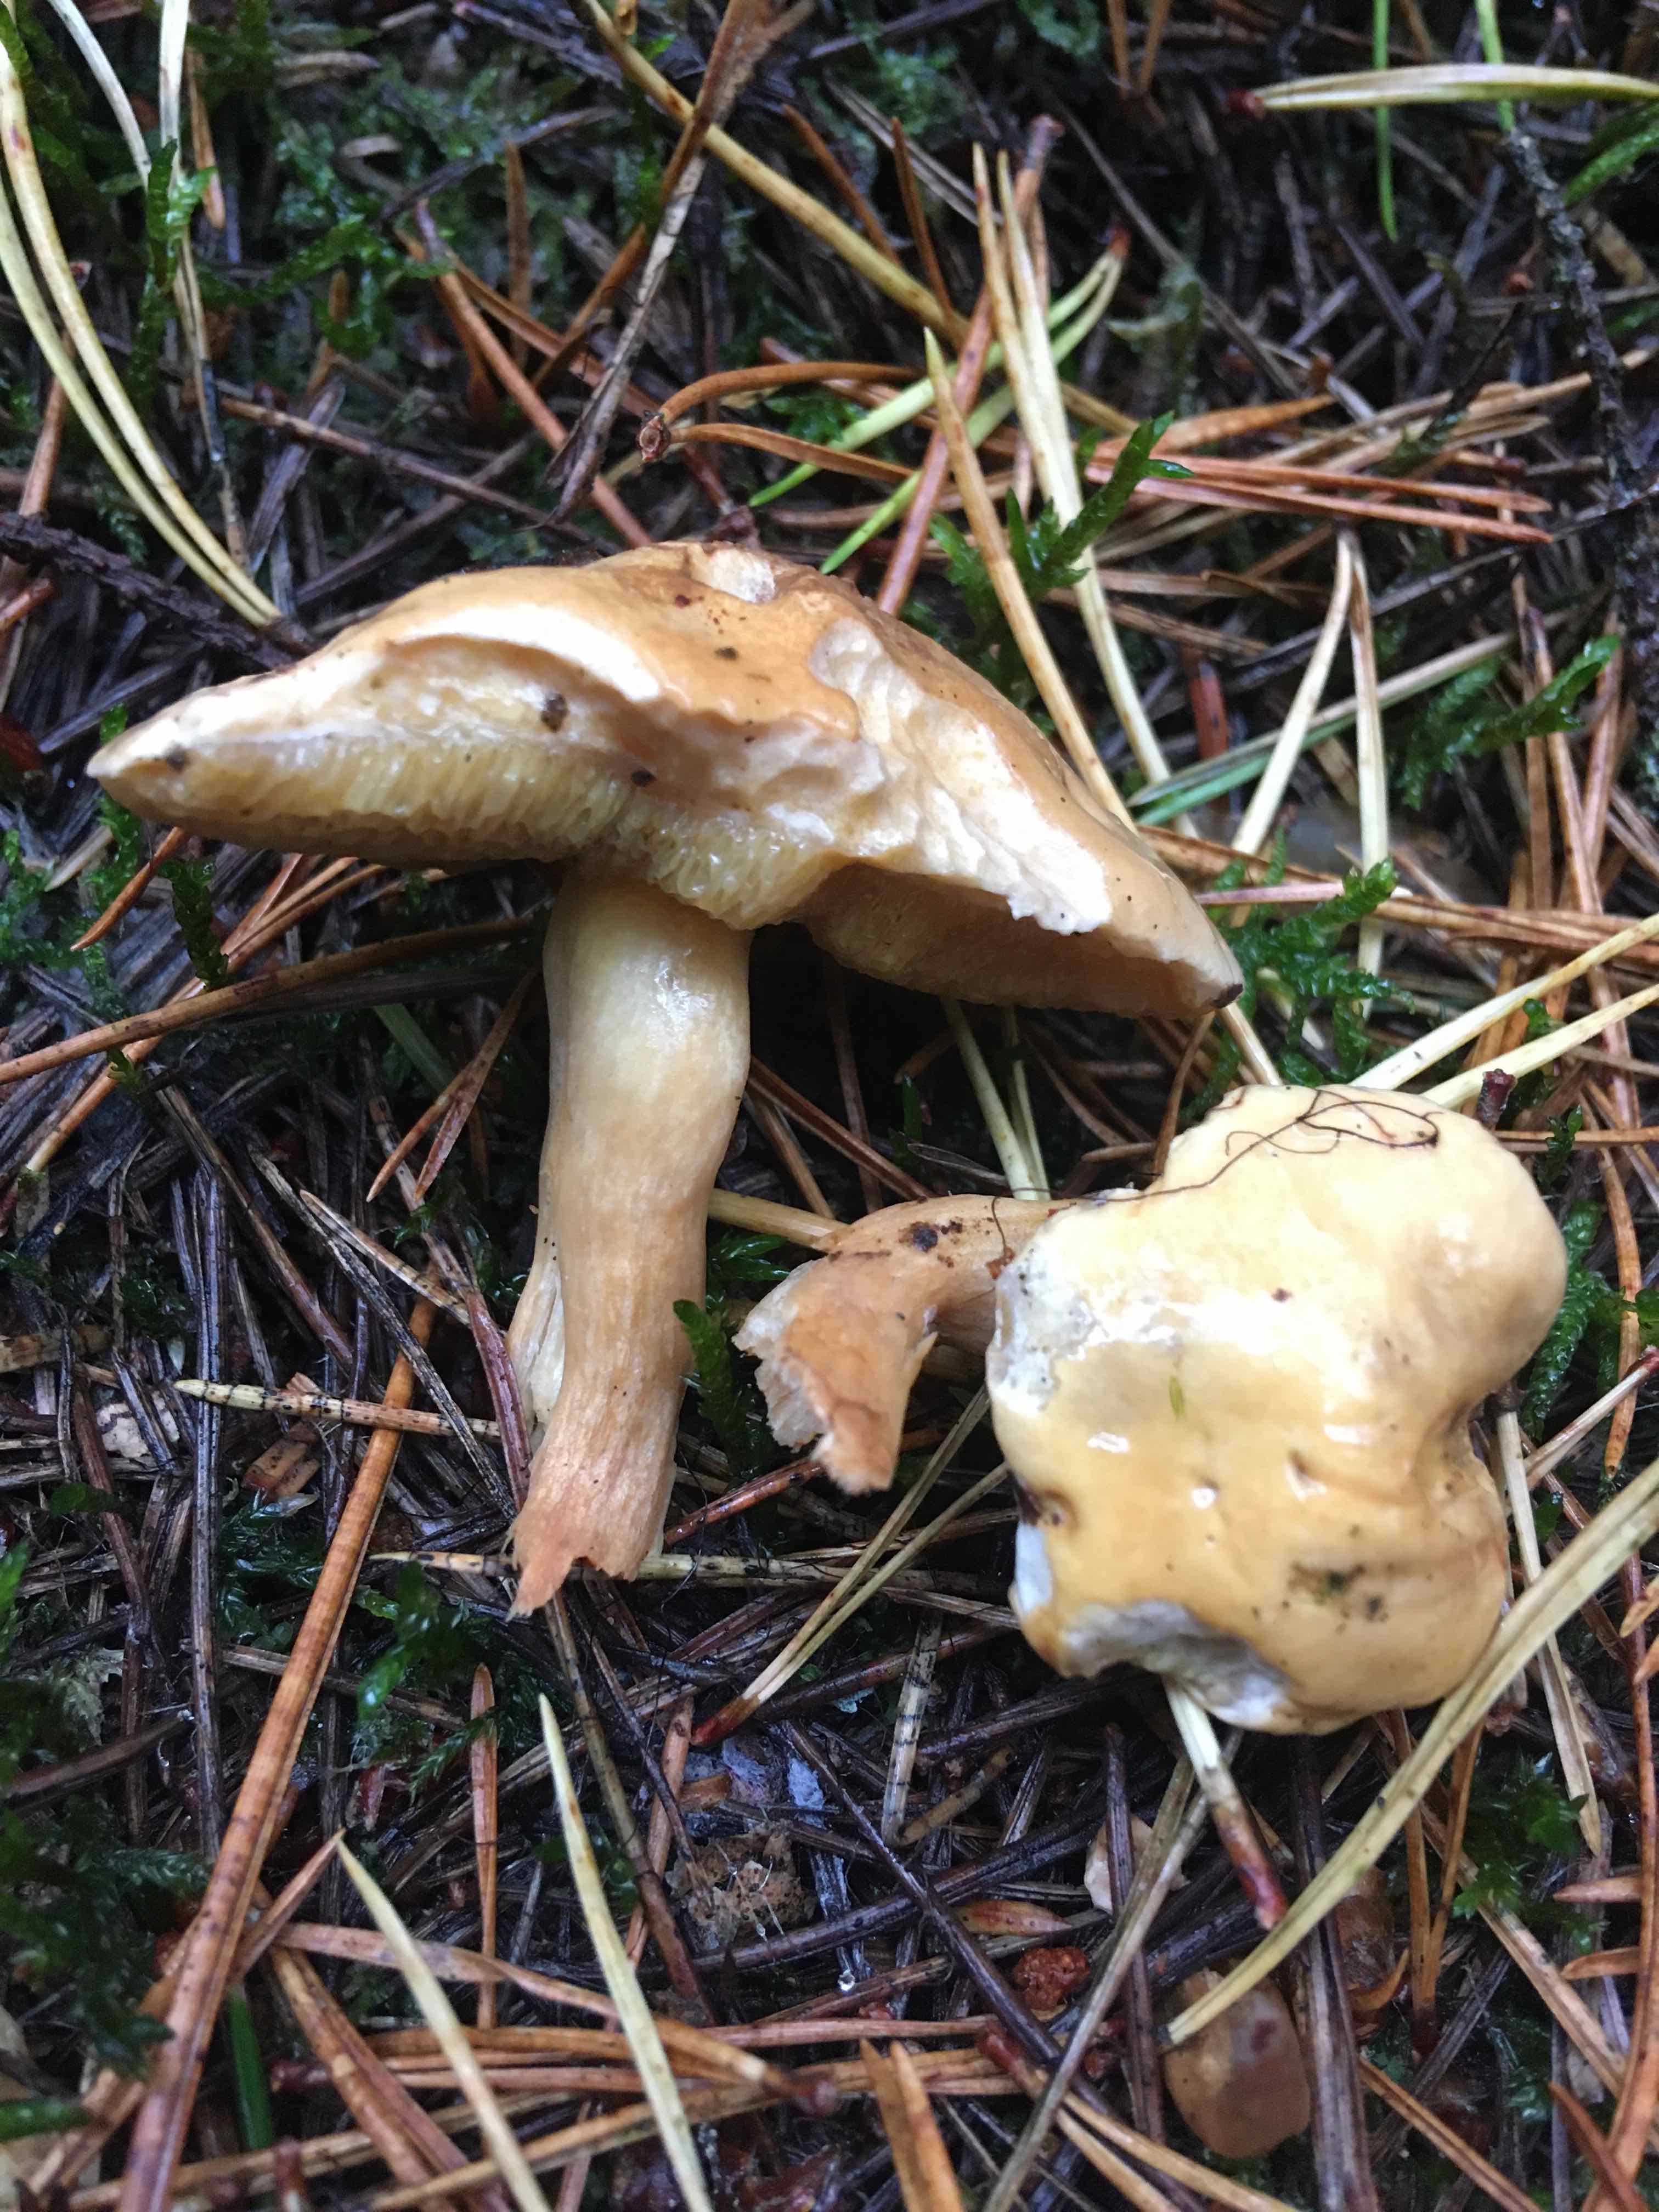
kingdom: Fungi
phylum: Basidiomycota
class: Agaricomycetes
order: Boletales
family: Suillaceae
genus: Suillus
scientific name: Suillus bovinus
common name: grovporet slimrørhat
